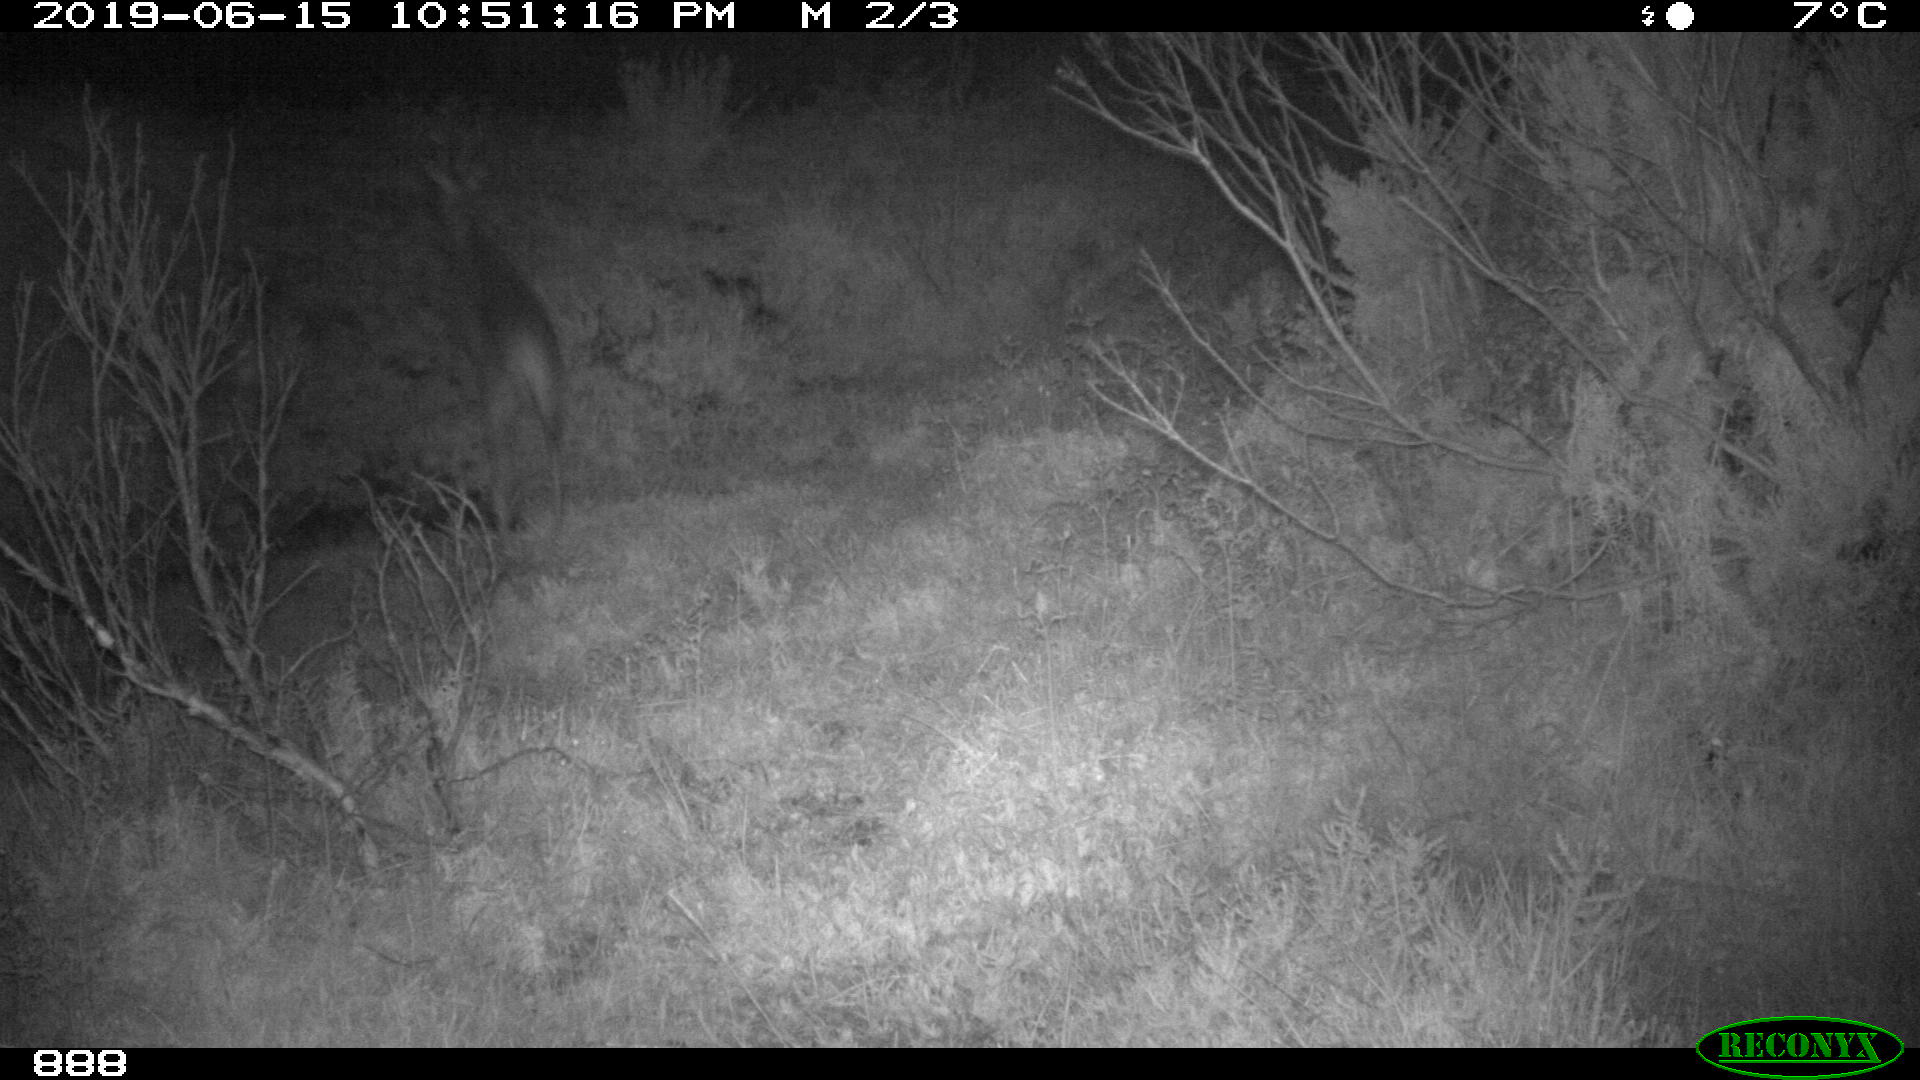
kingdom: Animalia
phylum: Chordata
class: Mammalia
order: Artiodactyla
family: Cervidae
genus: Capreolus
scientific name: Capreolus capreolus
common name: Western roe deer
